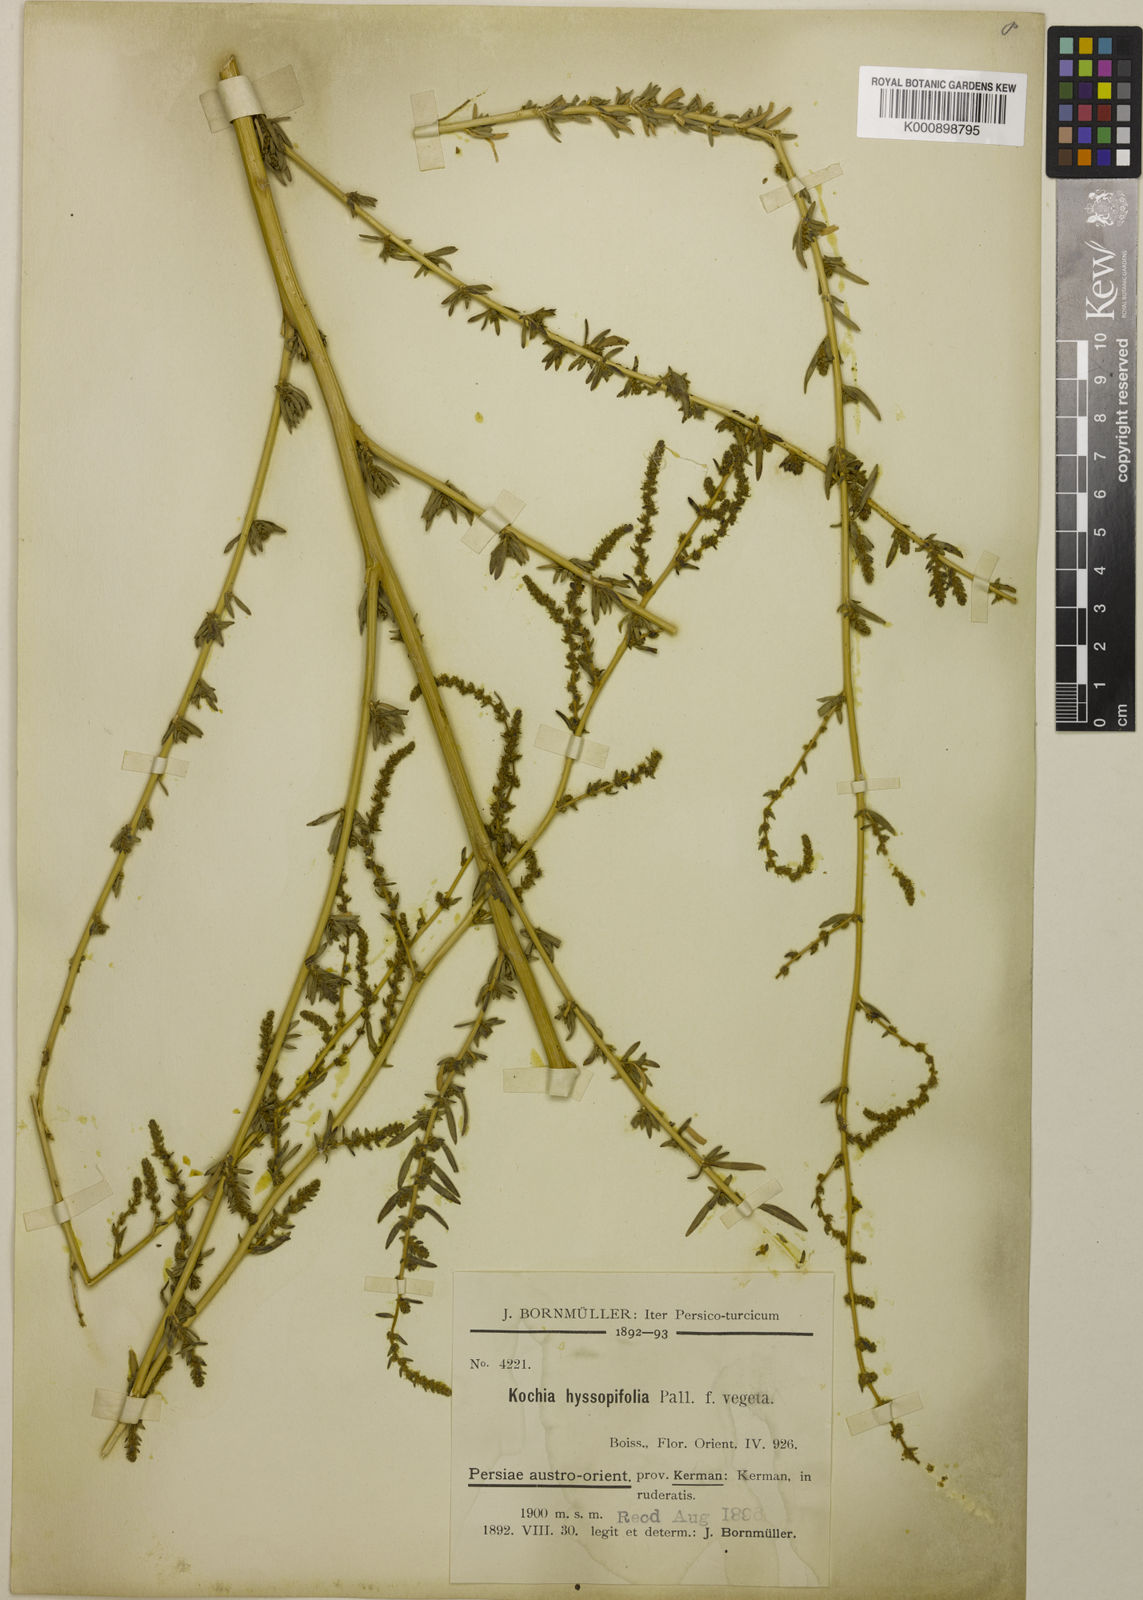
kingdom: Plantae
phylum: Tracheophyta
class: Magnoliopsida
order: Caryophyllales
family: Amaranthaceae
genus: Bassia
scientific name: Bassia hyssopifolia
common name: Fivehorn smotherweed
